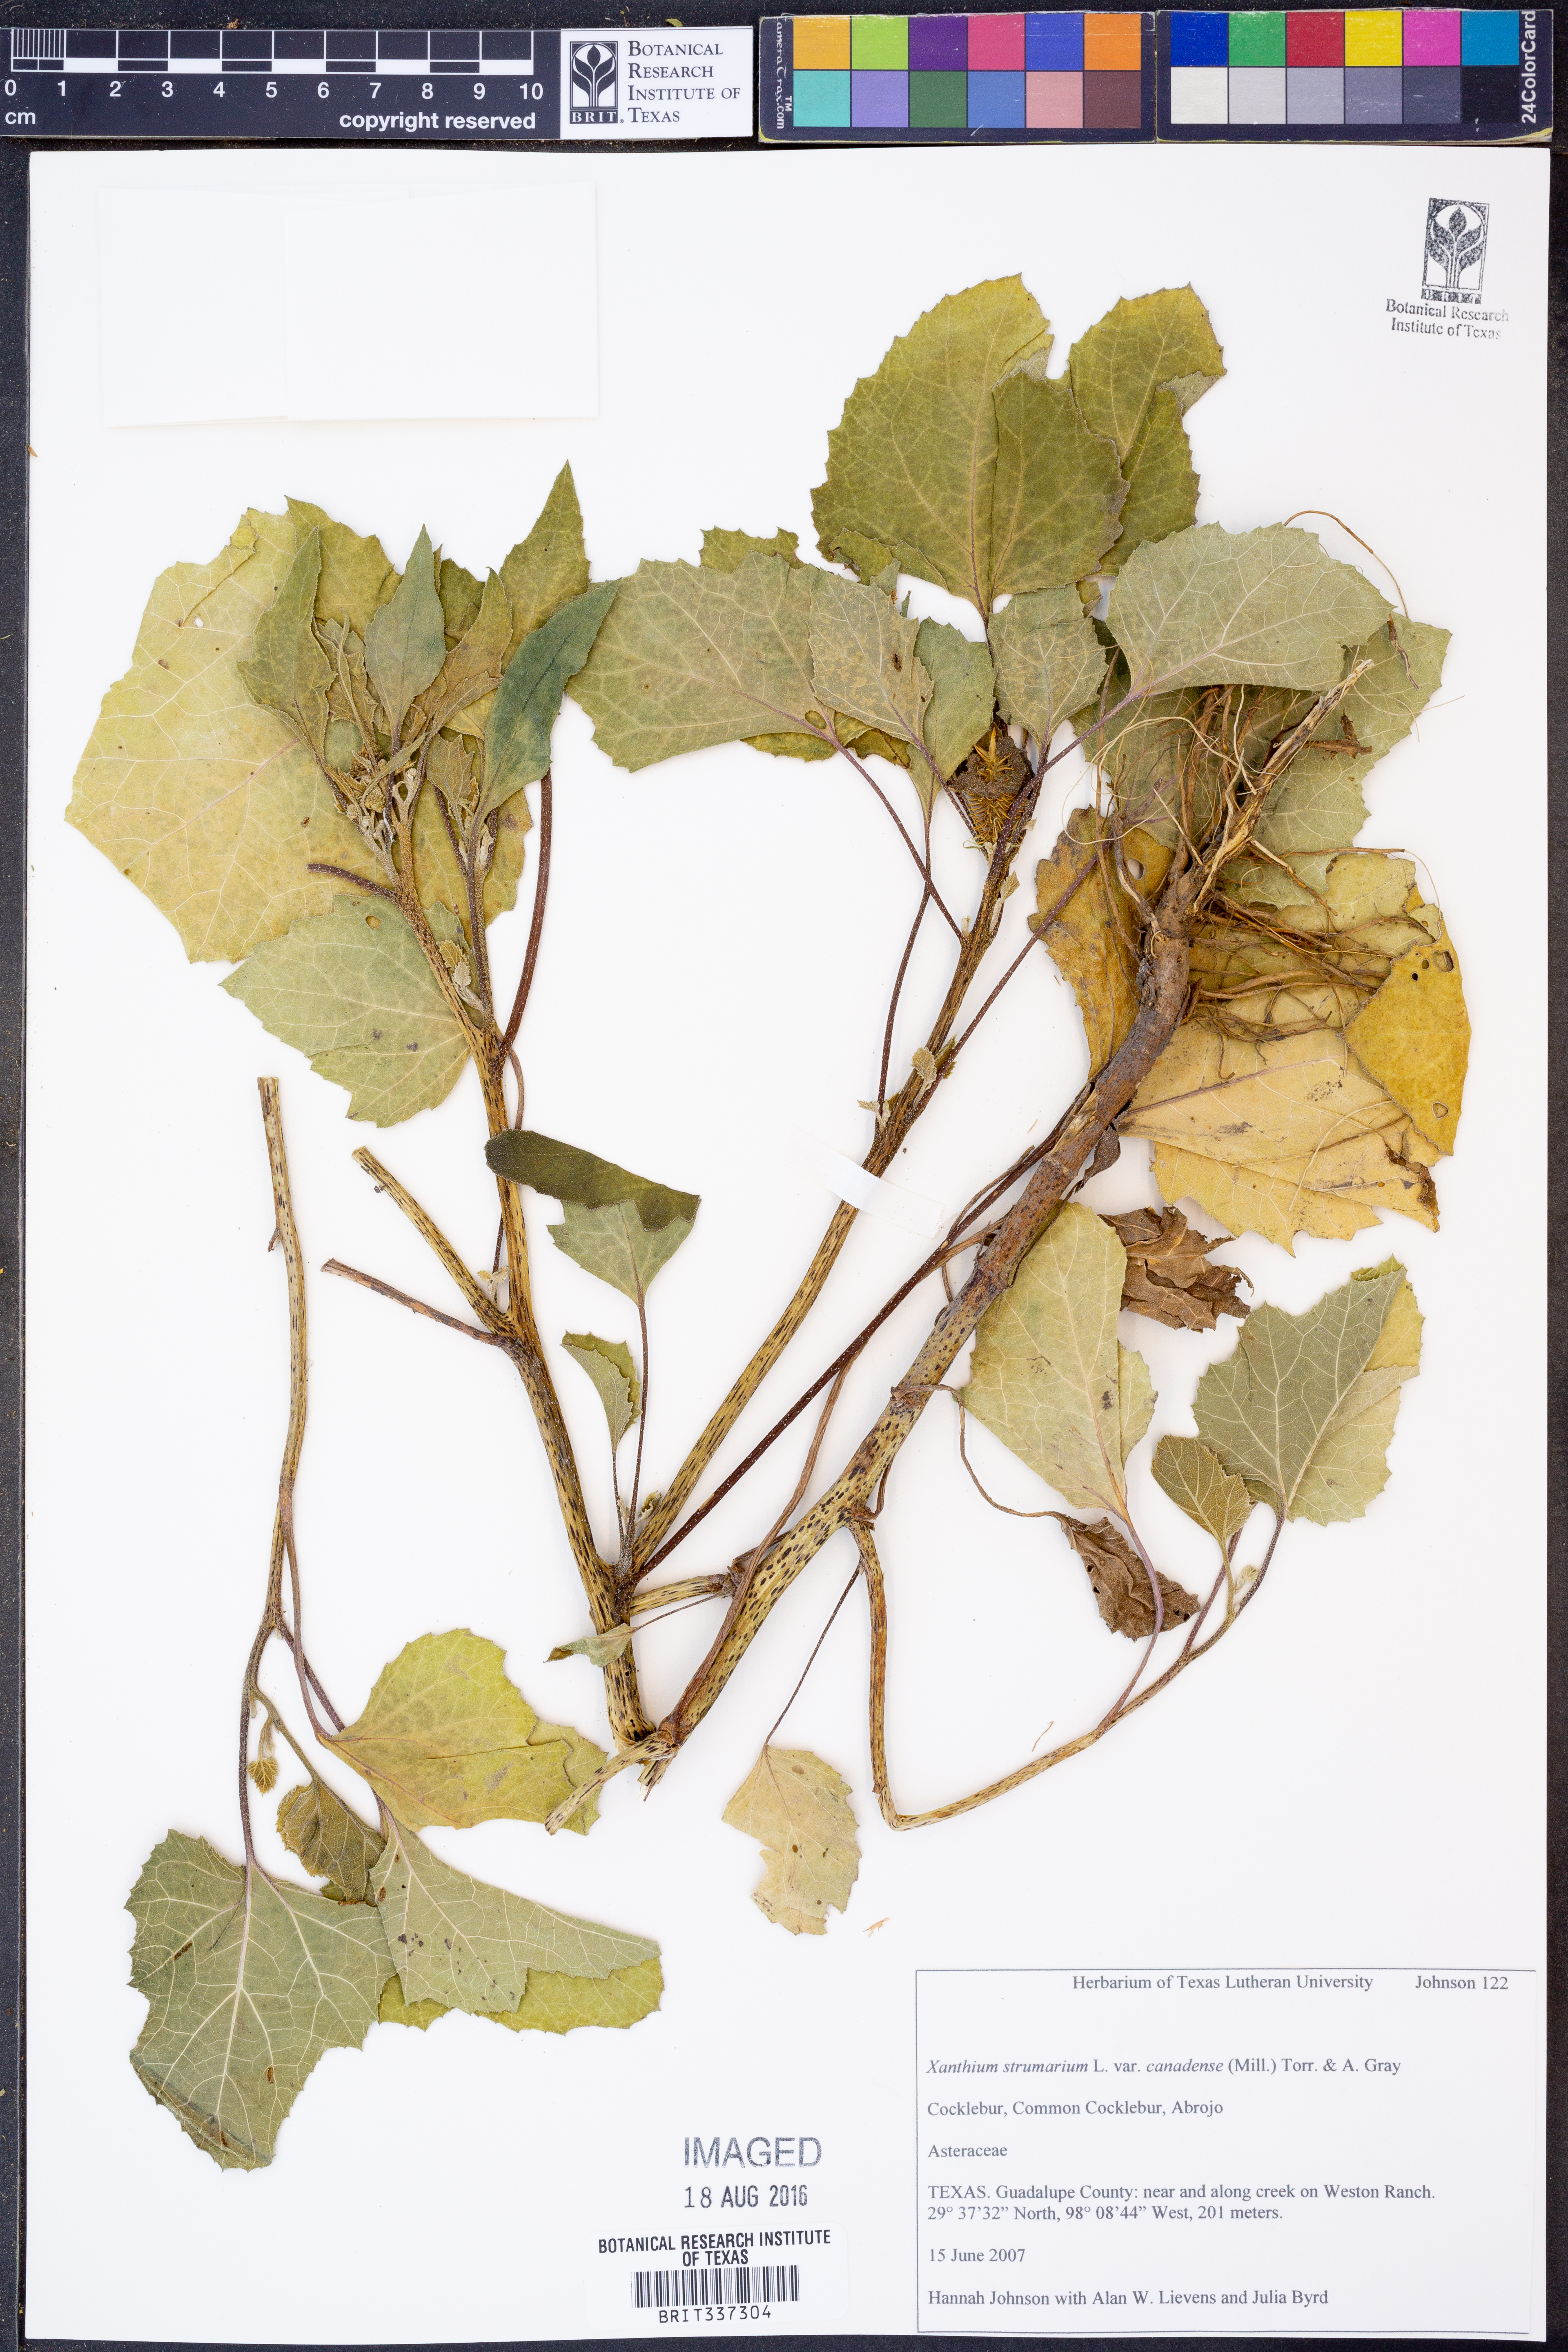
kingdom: Plantae
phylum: Tracheophyta
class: Magnoliopsida
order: Asterales
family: Asteraceae
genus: Xanthium
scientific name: Xanthium strumarium
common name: Rough cocklebur
